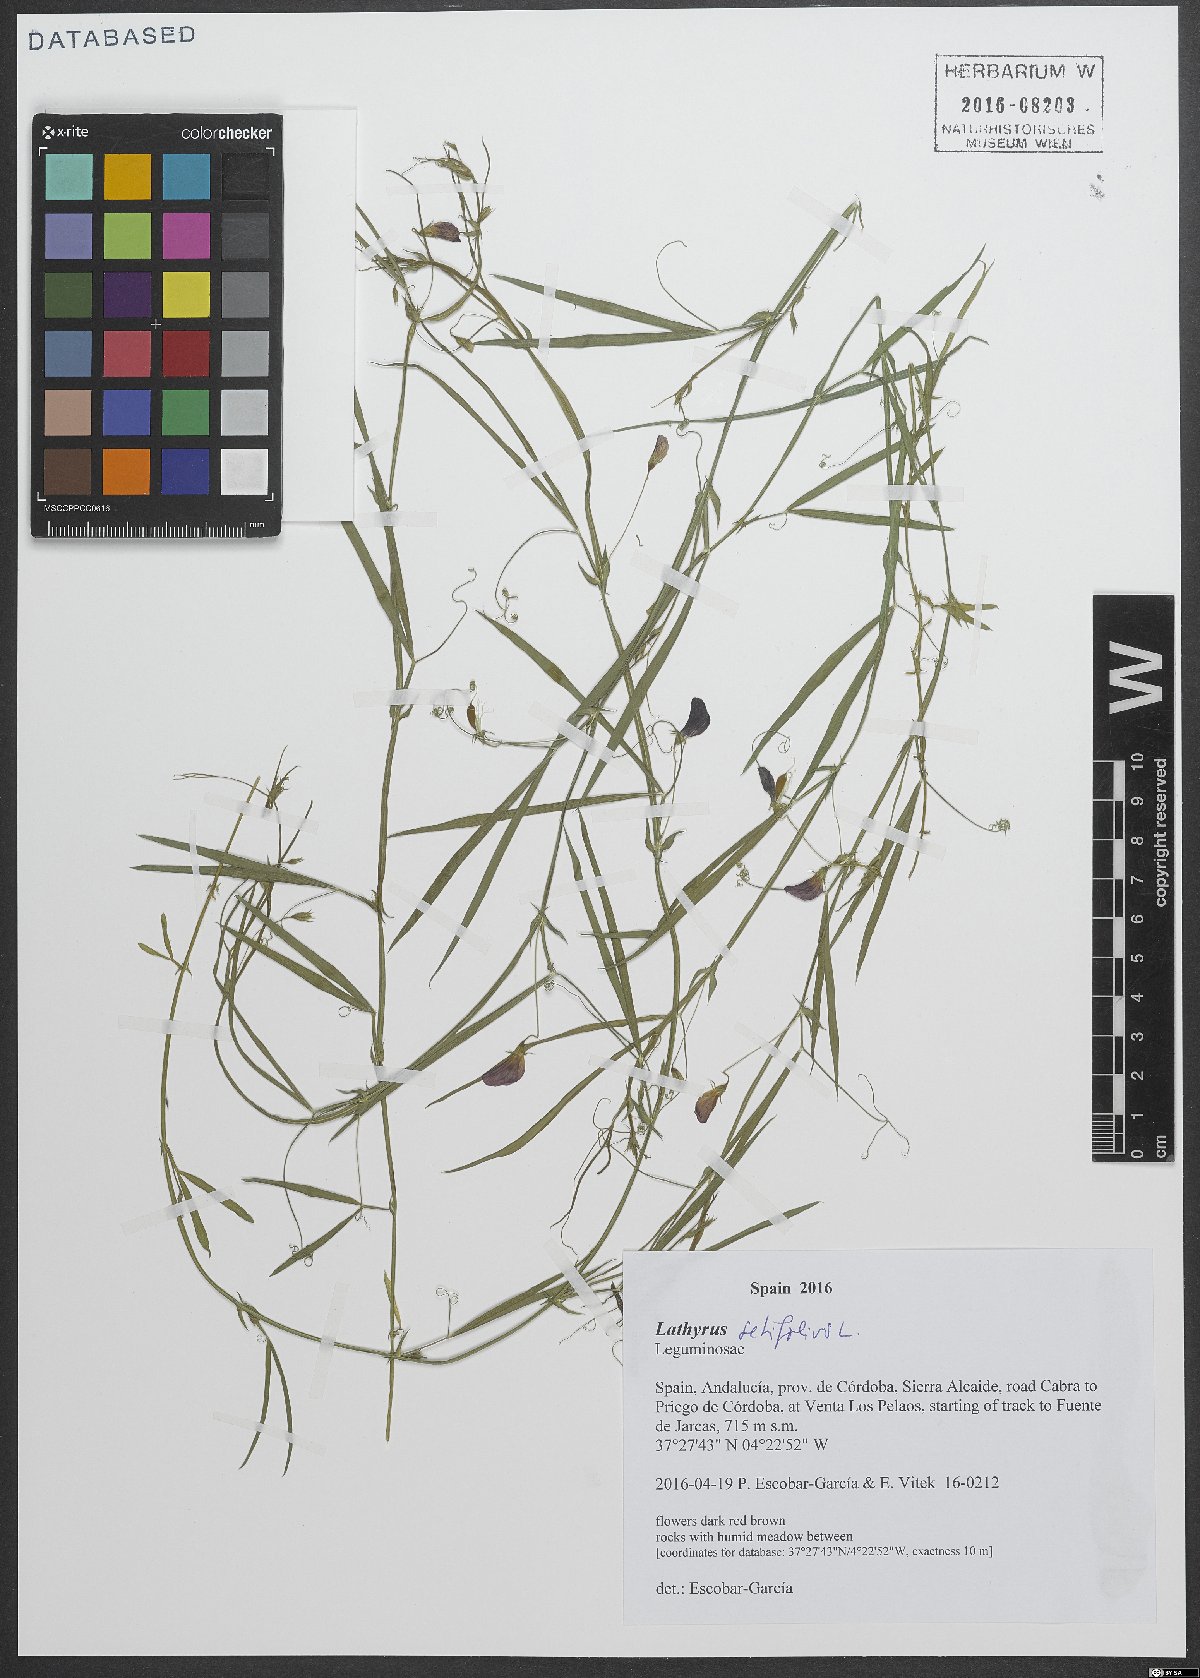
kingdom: Plantae
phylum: Tracheophyta
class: Magnoliopsida
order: Fabales
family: Fabaceae
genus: Lathyrus
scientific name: Lathyrus setifolius
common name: Brown vetchling
